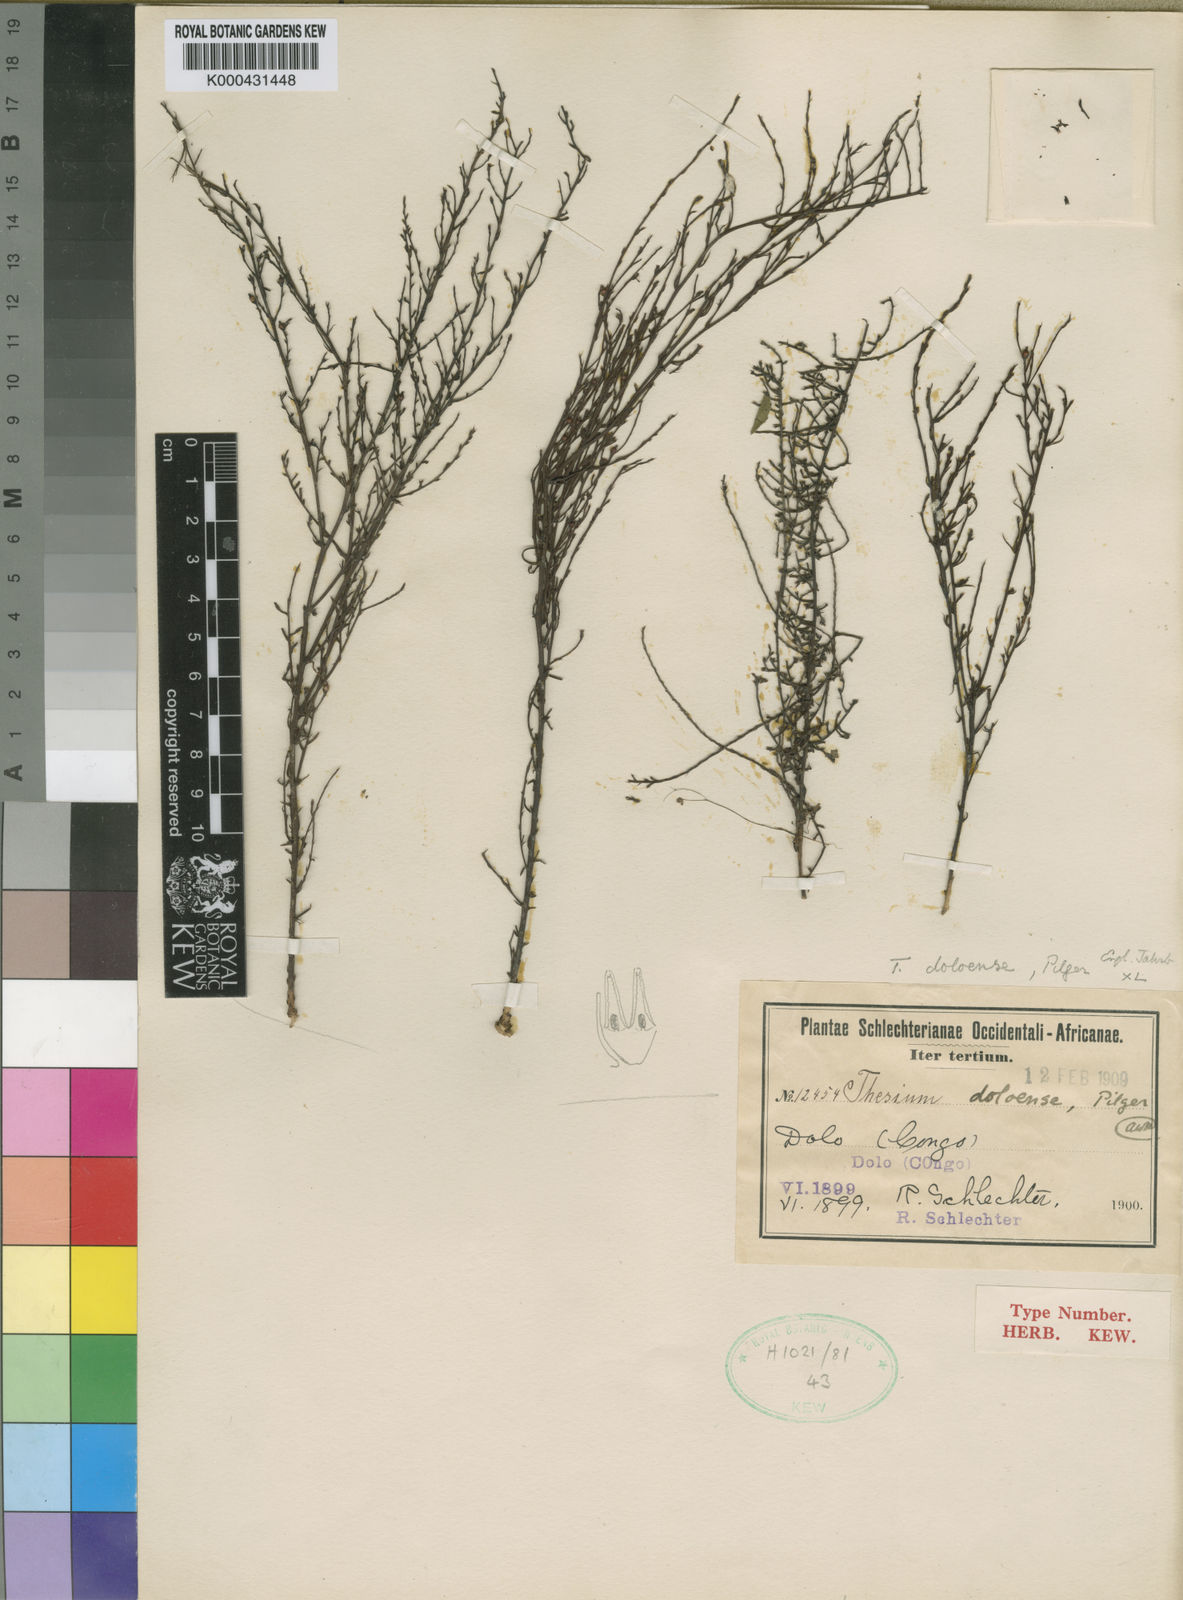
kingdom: Plantae
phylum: Tracheophyta
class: Magnoliopsida
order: Santalales
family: Thesiaceae
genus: Thesium
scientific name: Thesium doloense
